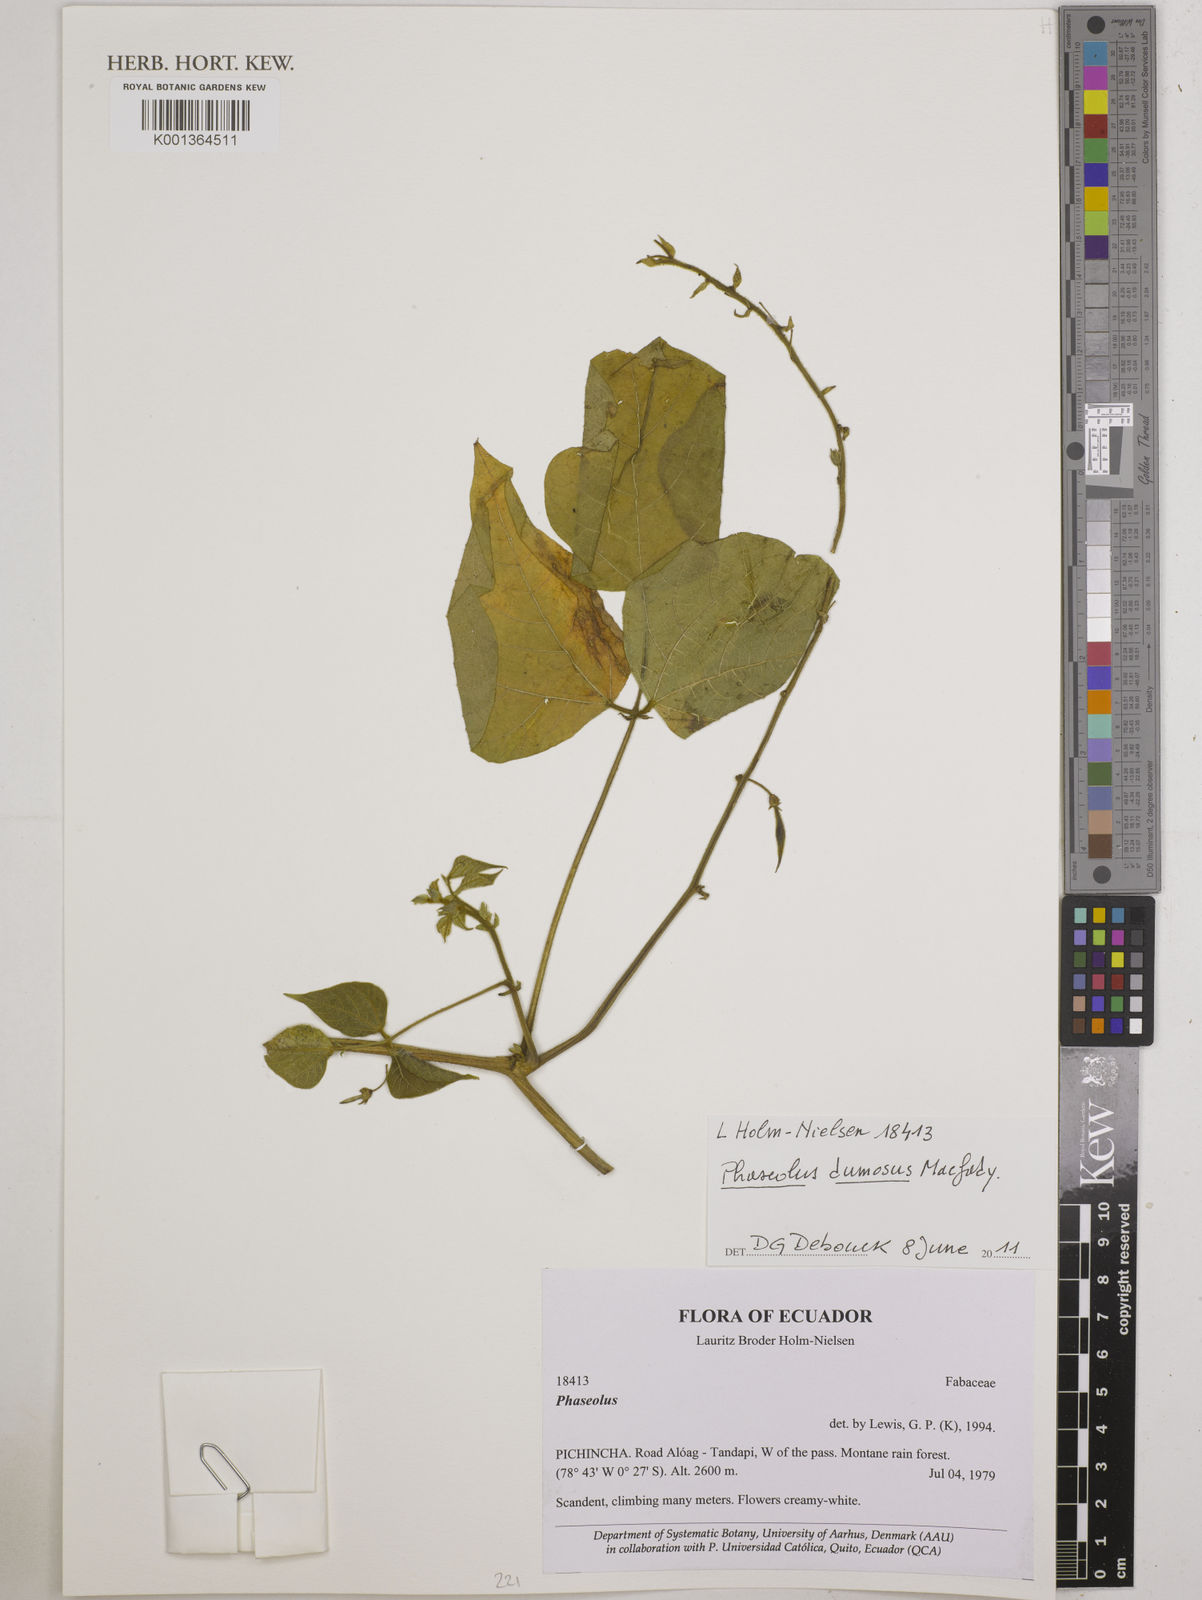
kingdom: Plantae
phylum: Tracheophyta
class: Magnoliopsida
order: Fabales
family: Fabaceae
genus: Phaseolus
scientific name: Phaseolus dumosus
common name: Year bean
